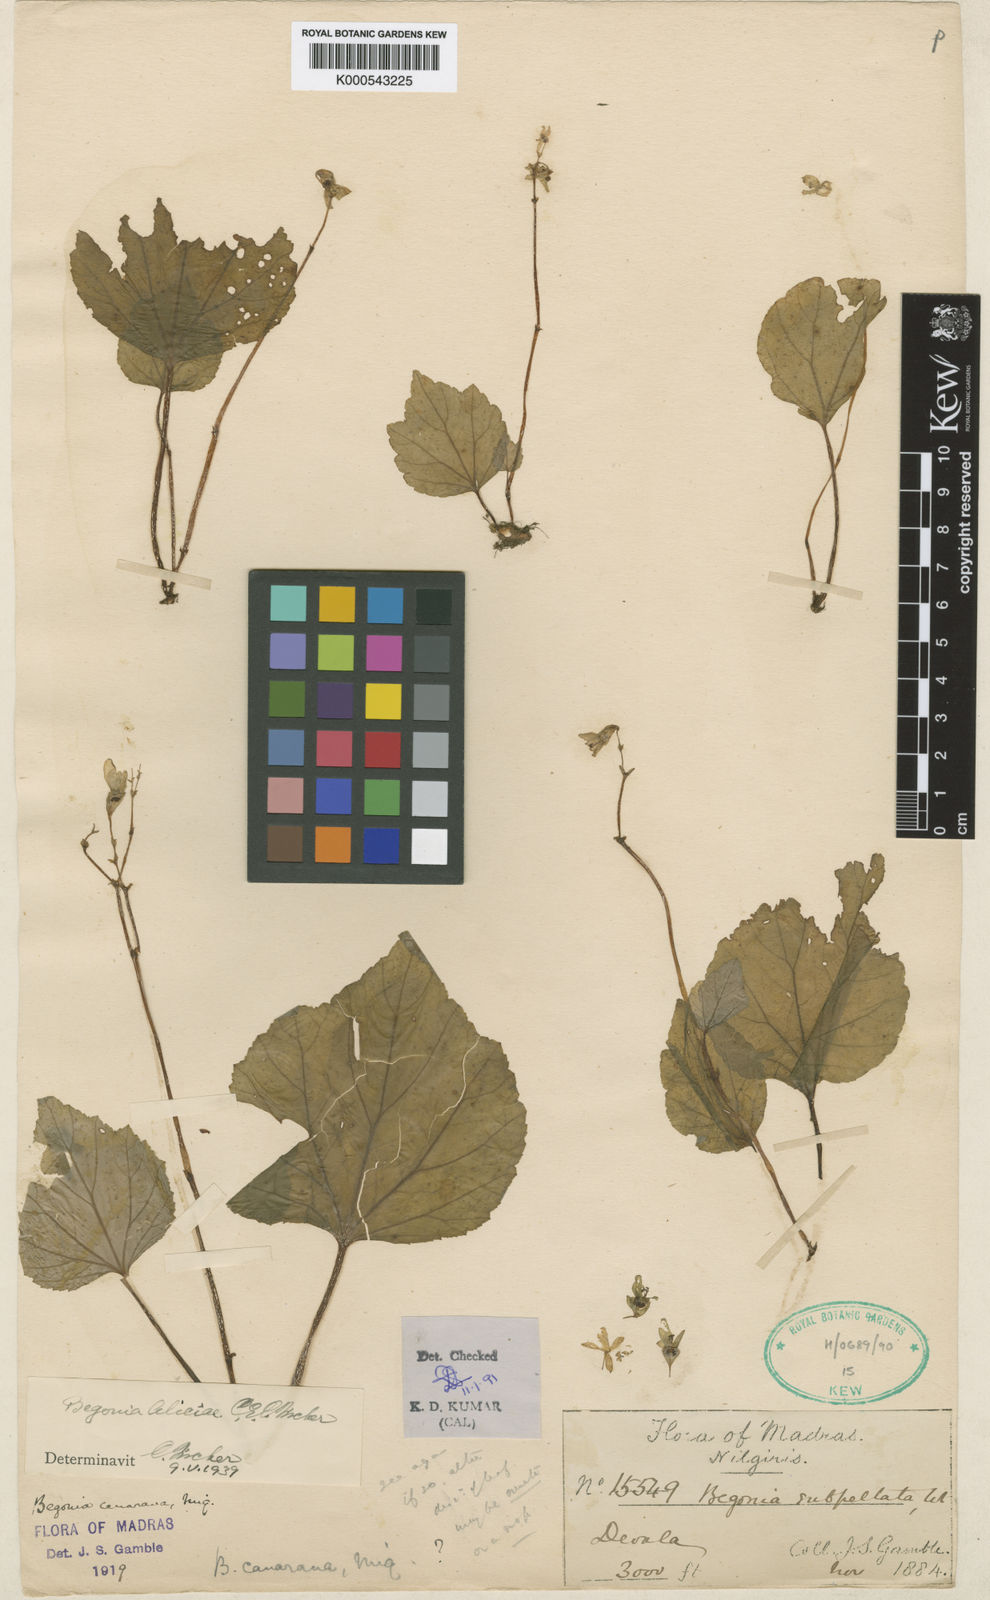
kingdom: Plantae
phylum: Tracheophyta
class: Magnoliopsida
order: Cucurbitales
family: Begoniaceae
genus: Begonia
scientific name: Begonia canarana
